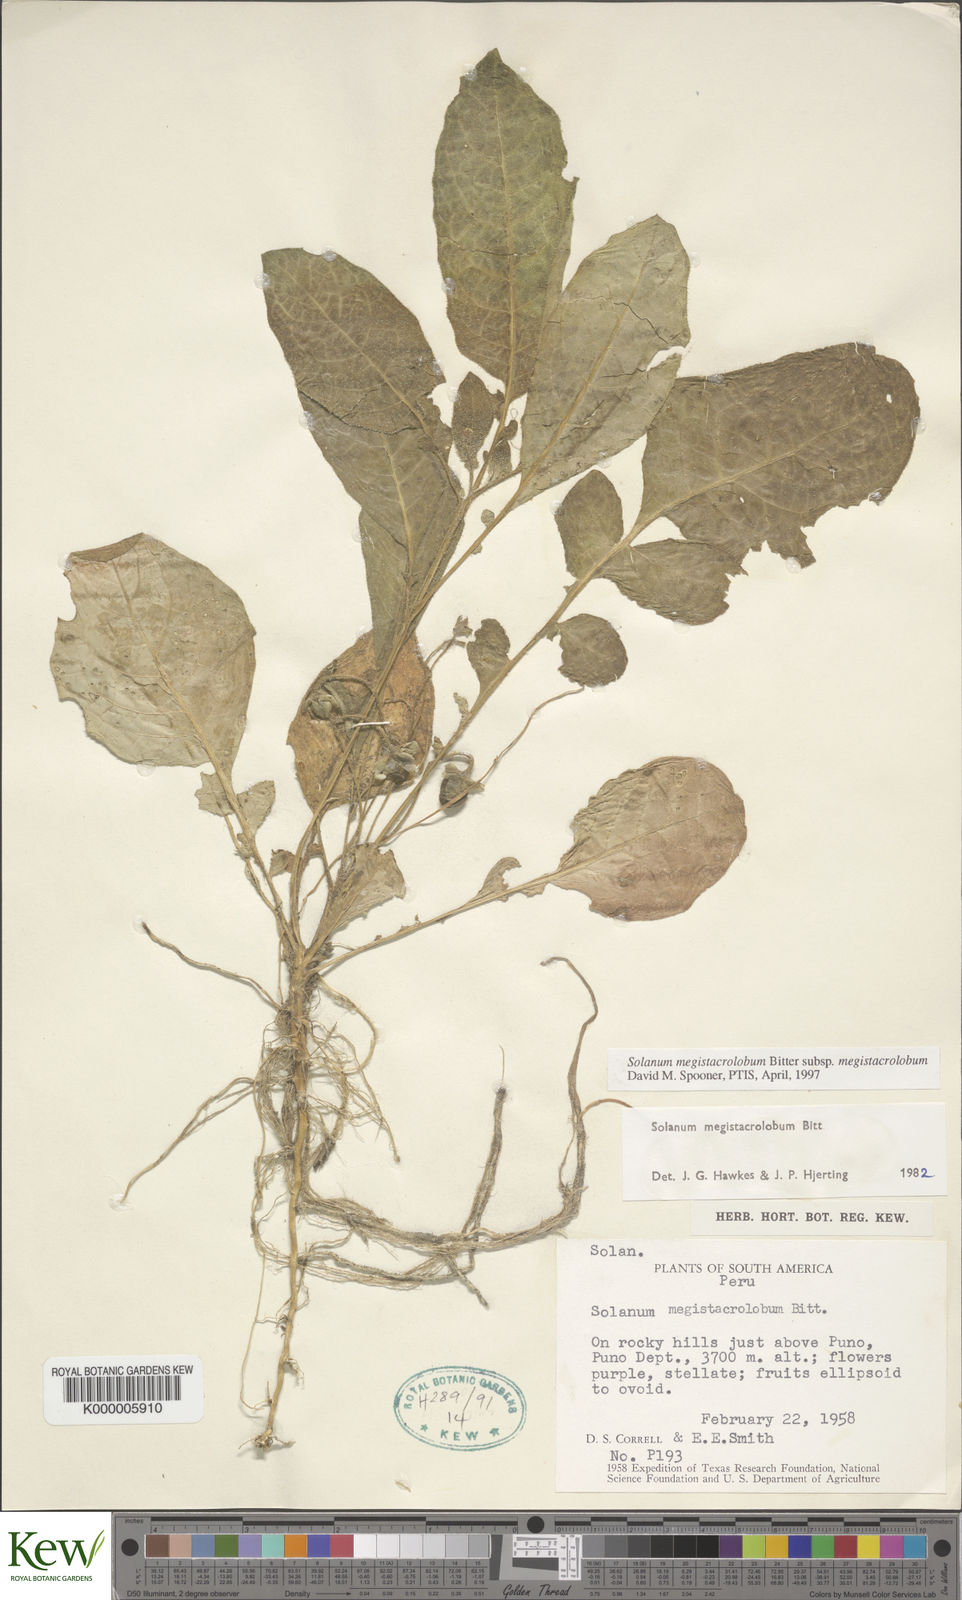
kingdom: Plantae
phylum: Tracheophyta
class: Magnoliopsida
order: Solanales
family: Solanaceae
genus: Solanum
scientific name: Solanum boliviense
